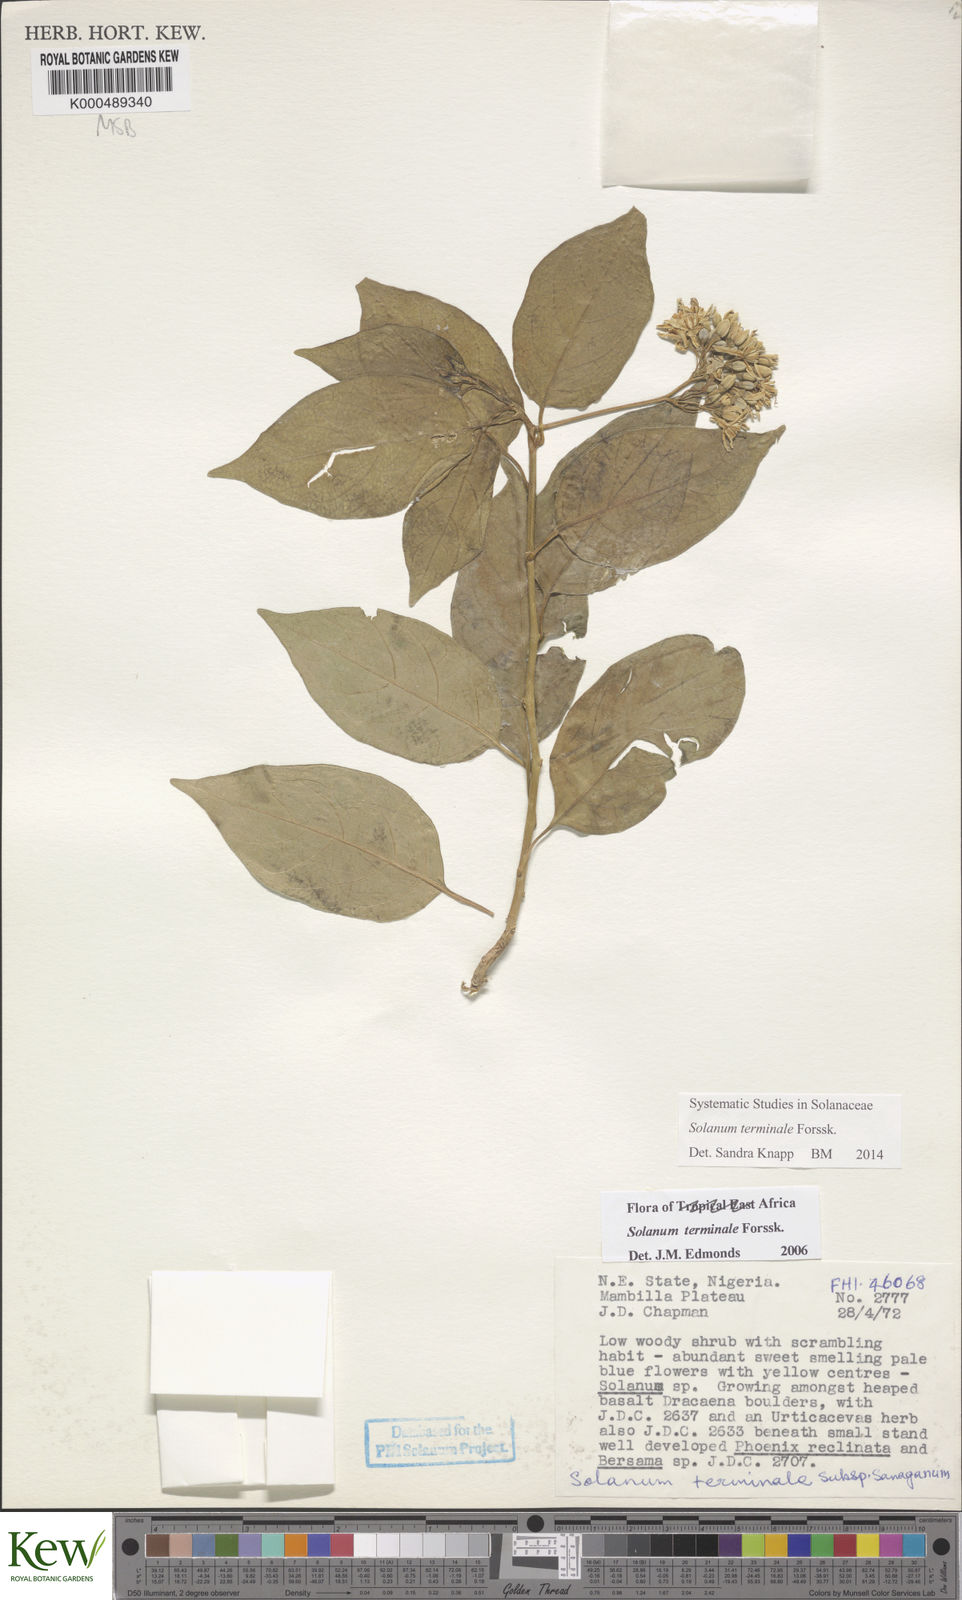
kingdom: Plantae
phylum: Tracheophyta
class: Magnoliopsida
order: Solanales
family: Solanaceae
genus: Solanum
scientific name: Solanum terminale
